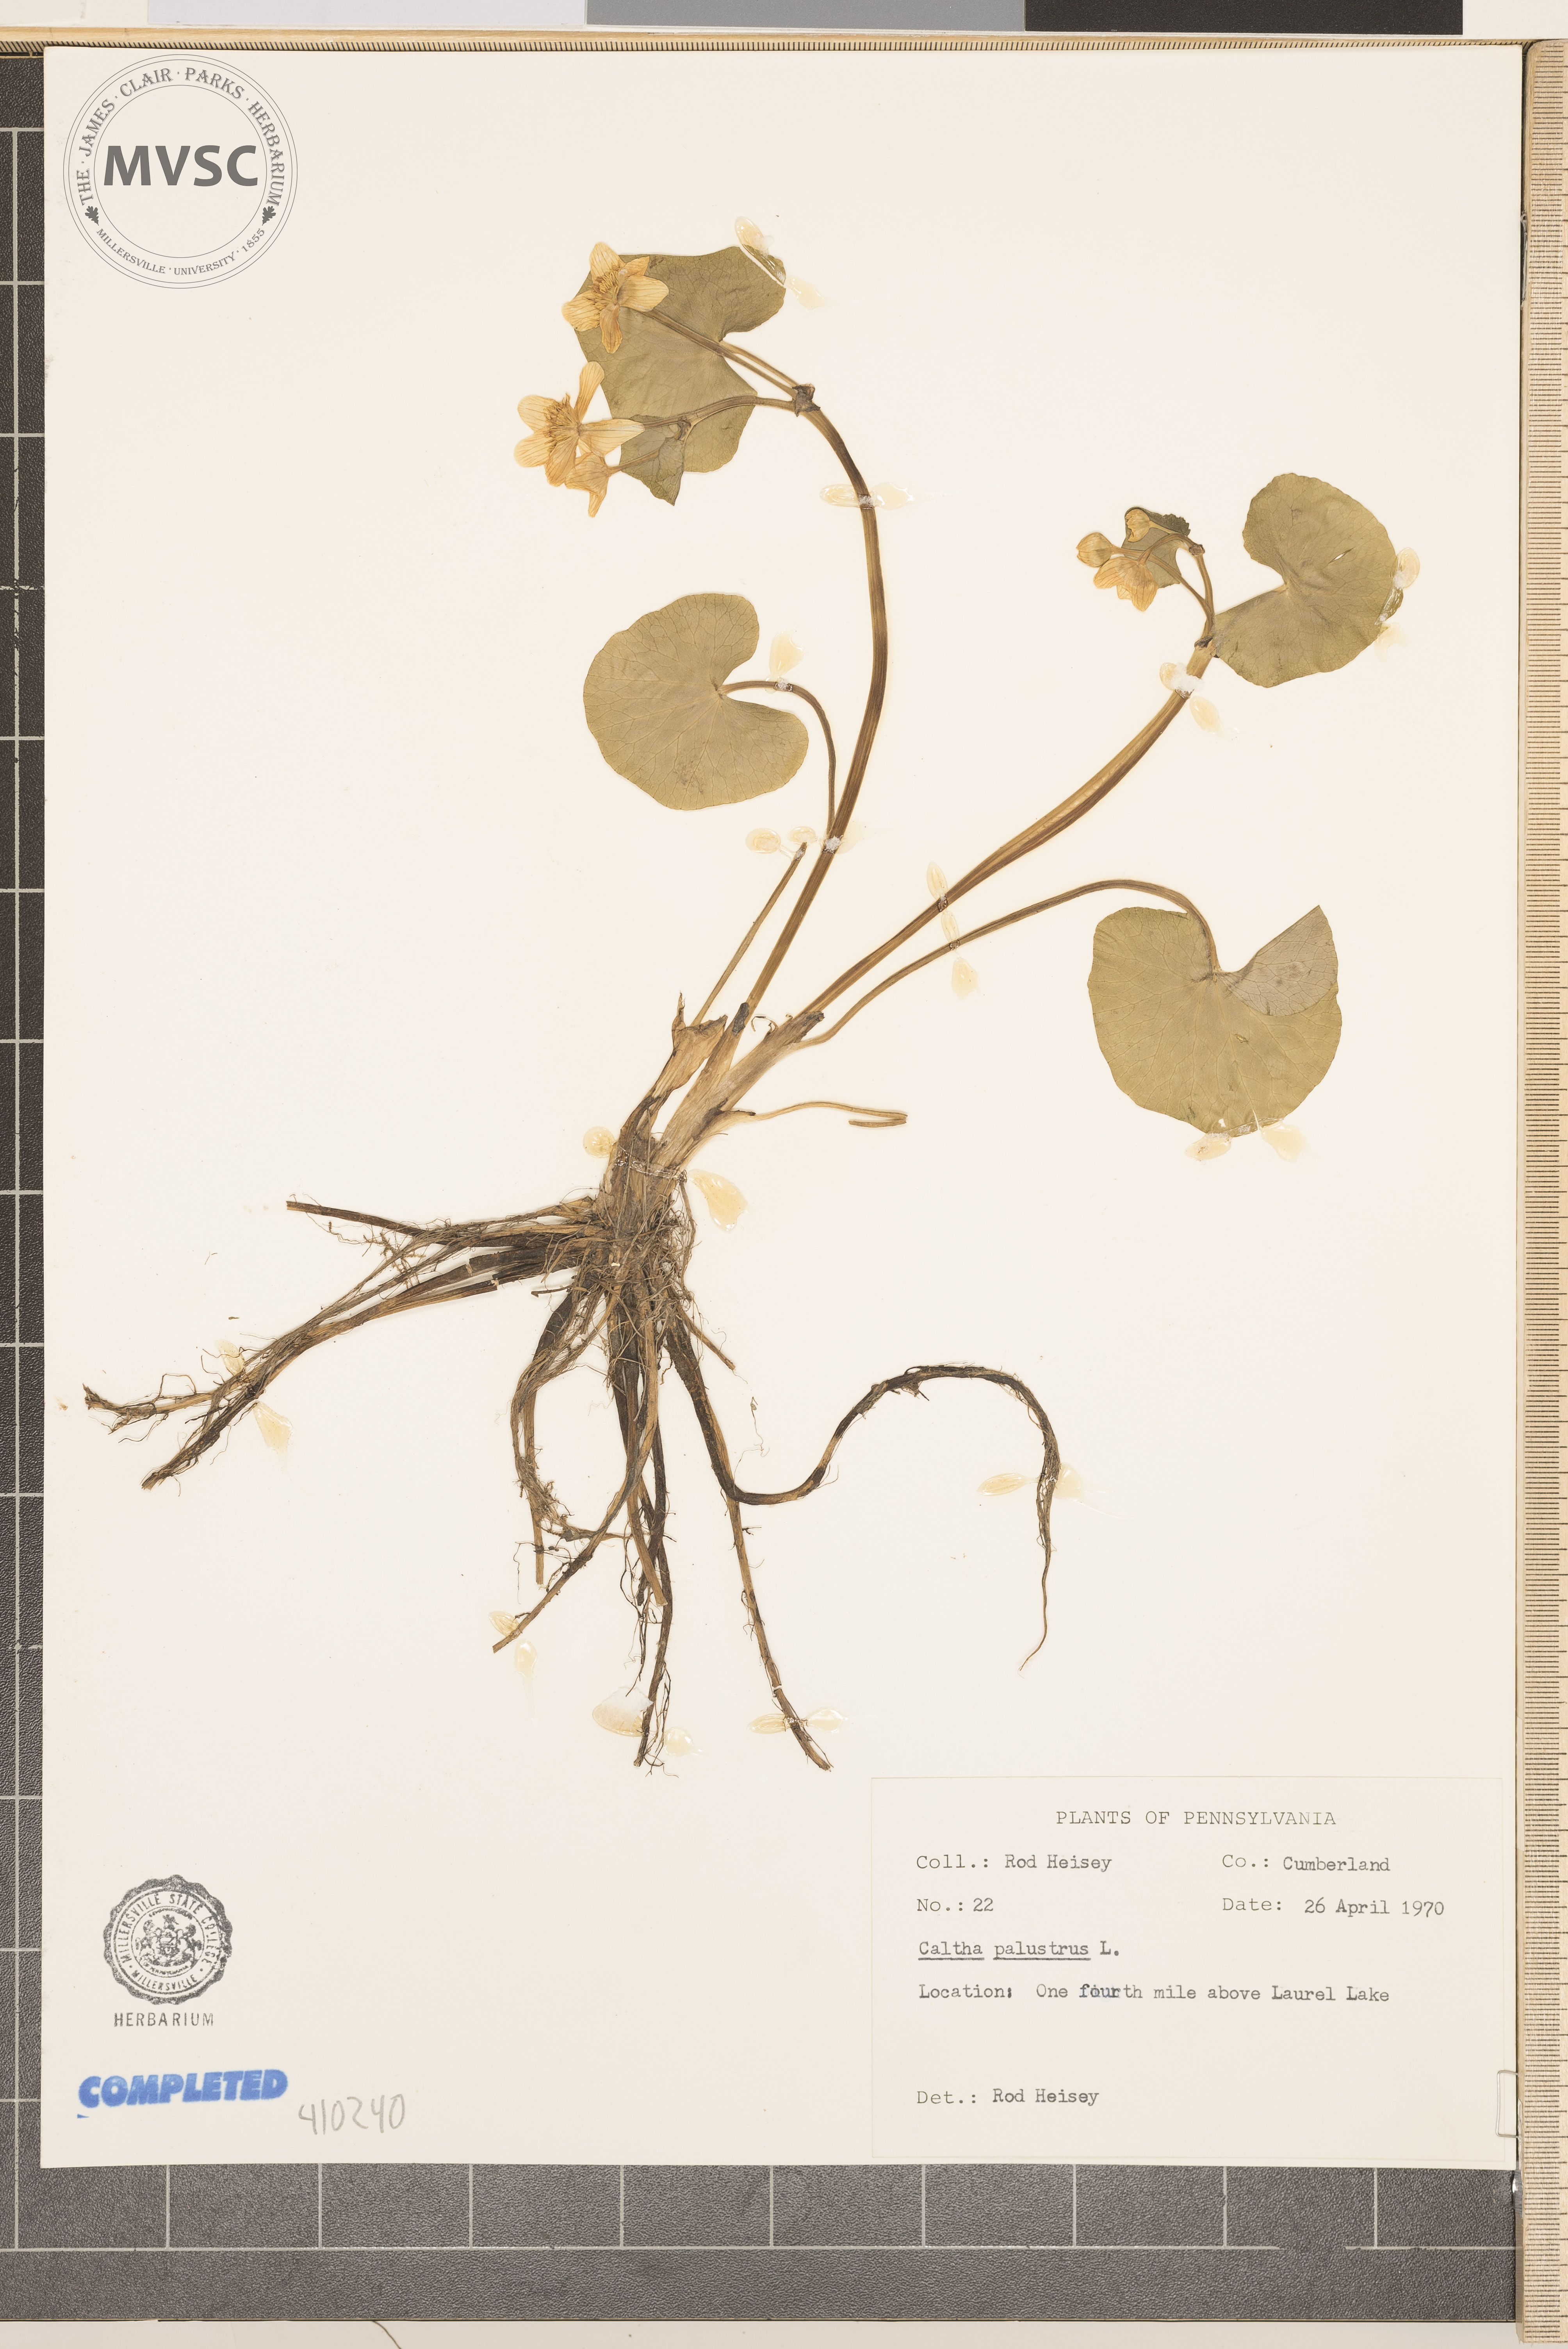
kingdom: Plantae
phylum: Tracheophyta
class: Magnoliopsida
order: Ranunculales
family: Ranunculaceae
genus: Caltha
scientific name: Caltha palustris
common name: Marsh marigold
